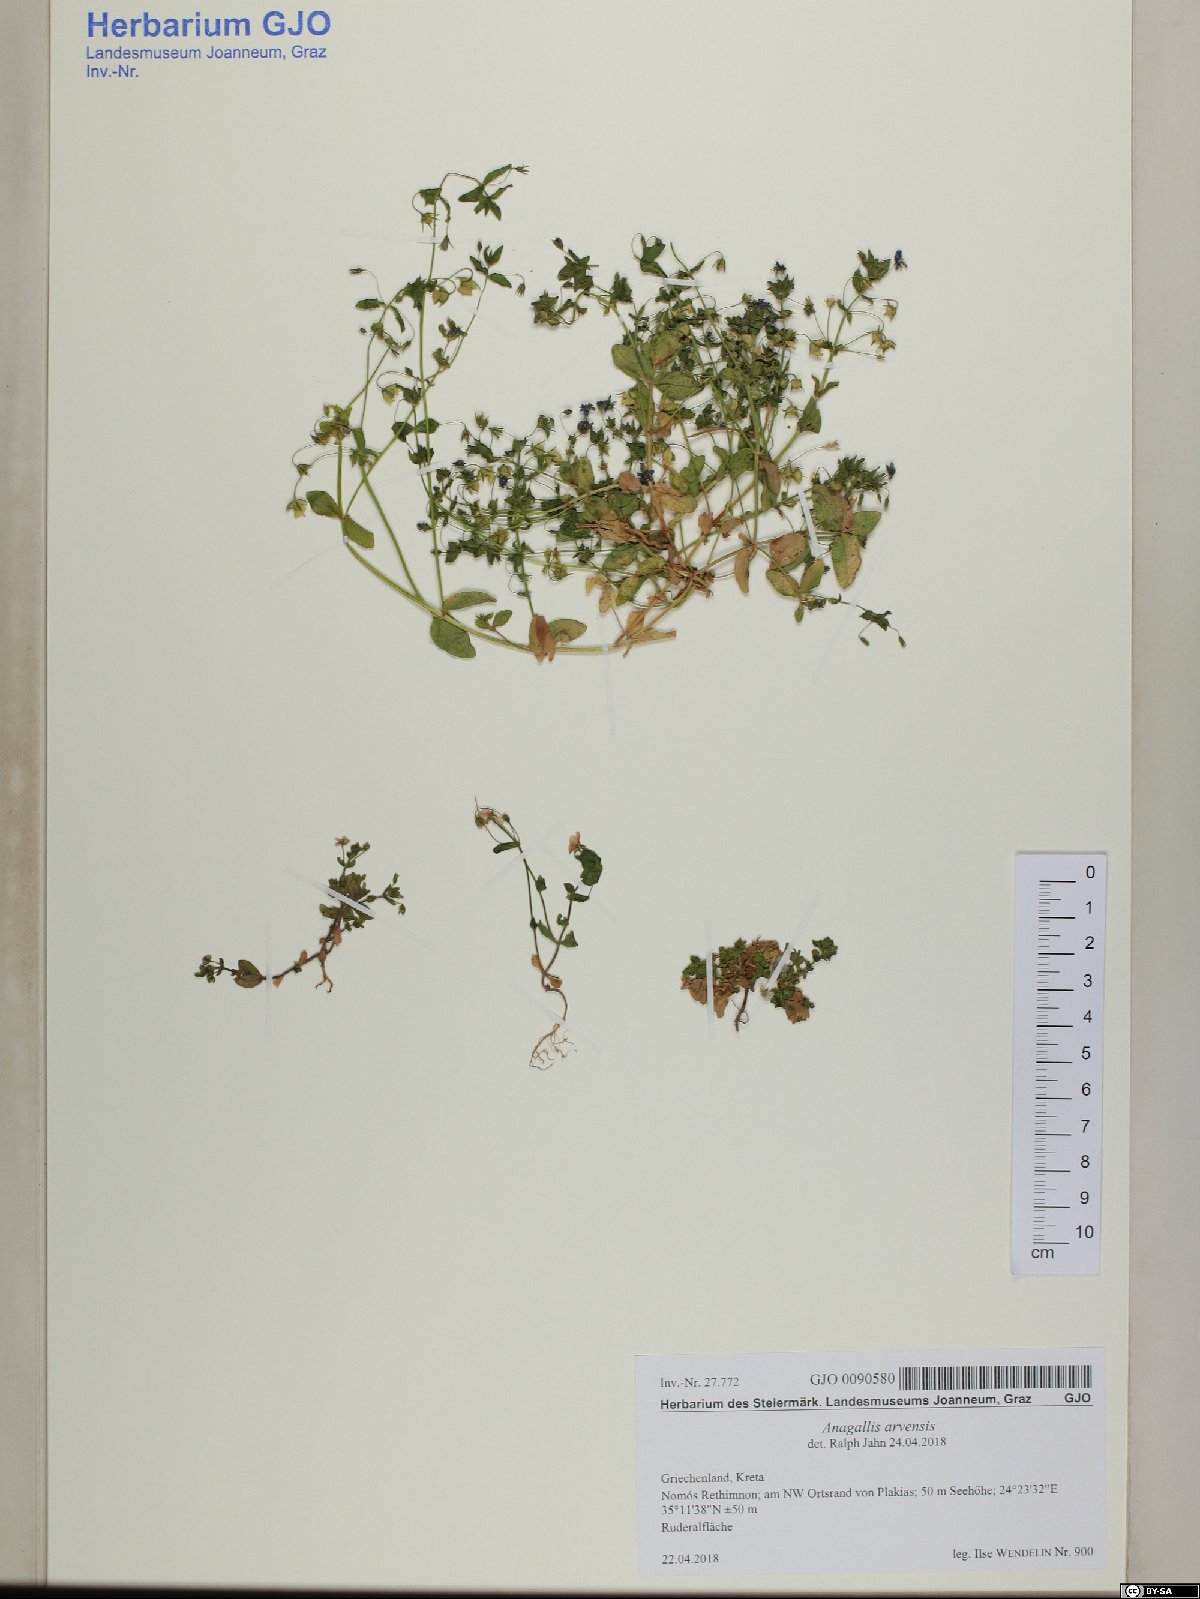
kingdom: Plantae
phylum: Tracheophyta
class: Magnoliopsida
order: Ericales
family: Primulaceae
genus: Lysimachia
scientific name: Lysimachia arvensis
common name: Scarlet pimpernel
